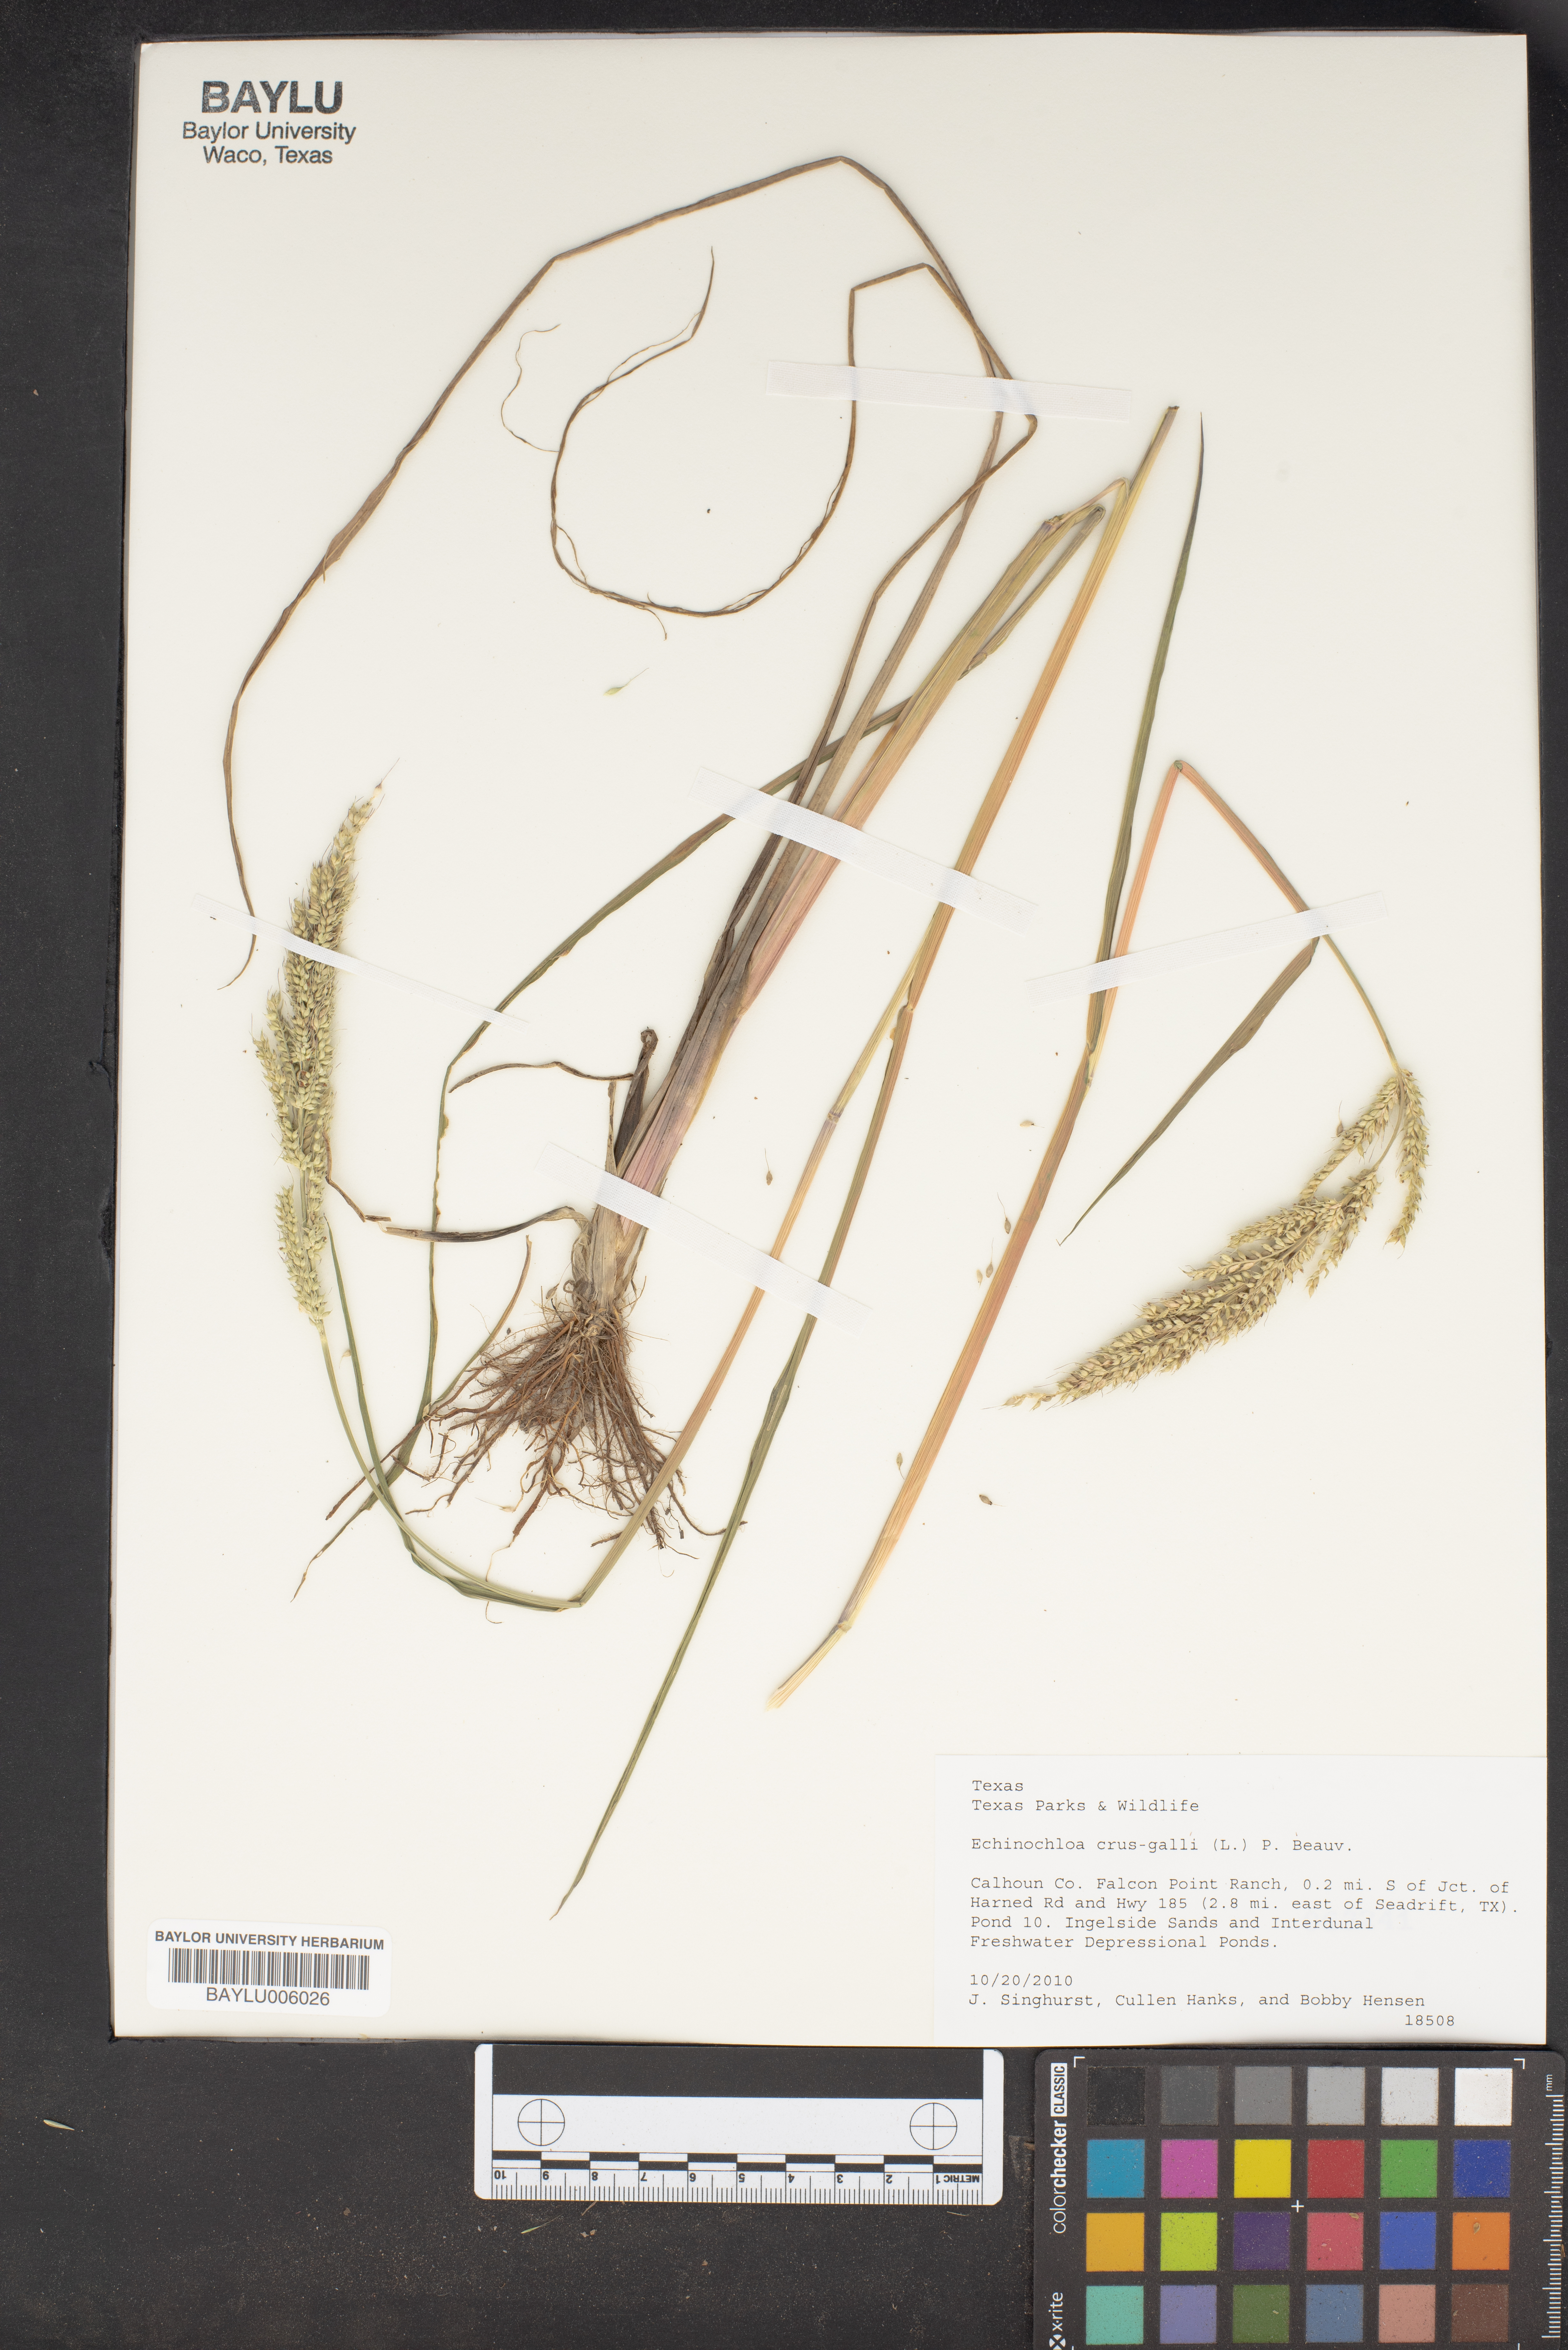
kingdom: Plantae
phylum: Tracheophyta
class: Liliopsida
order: Poales
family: Poaceae
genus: Echinochloa
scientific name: Echinochloa crus-galli
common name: Cockspur
